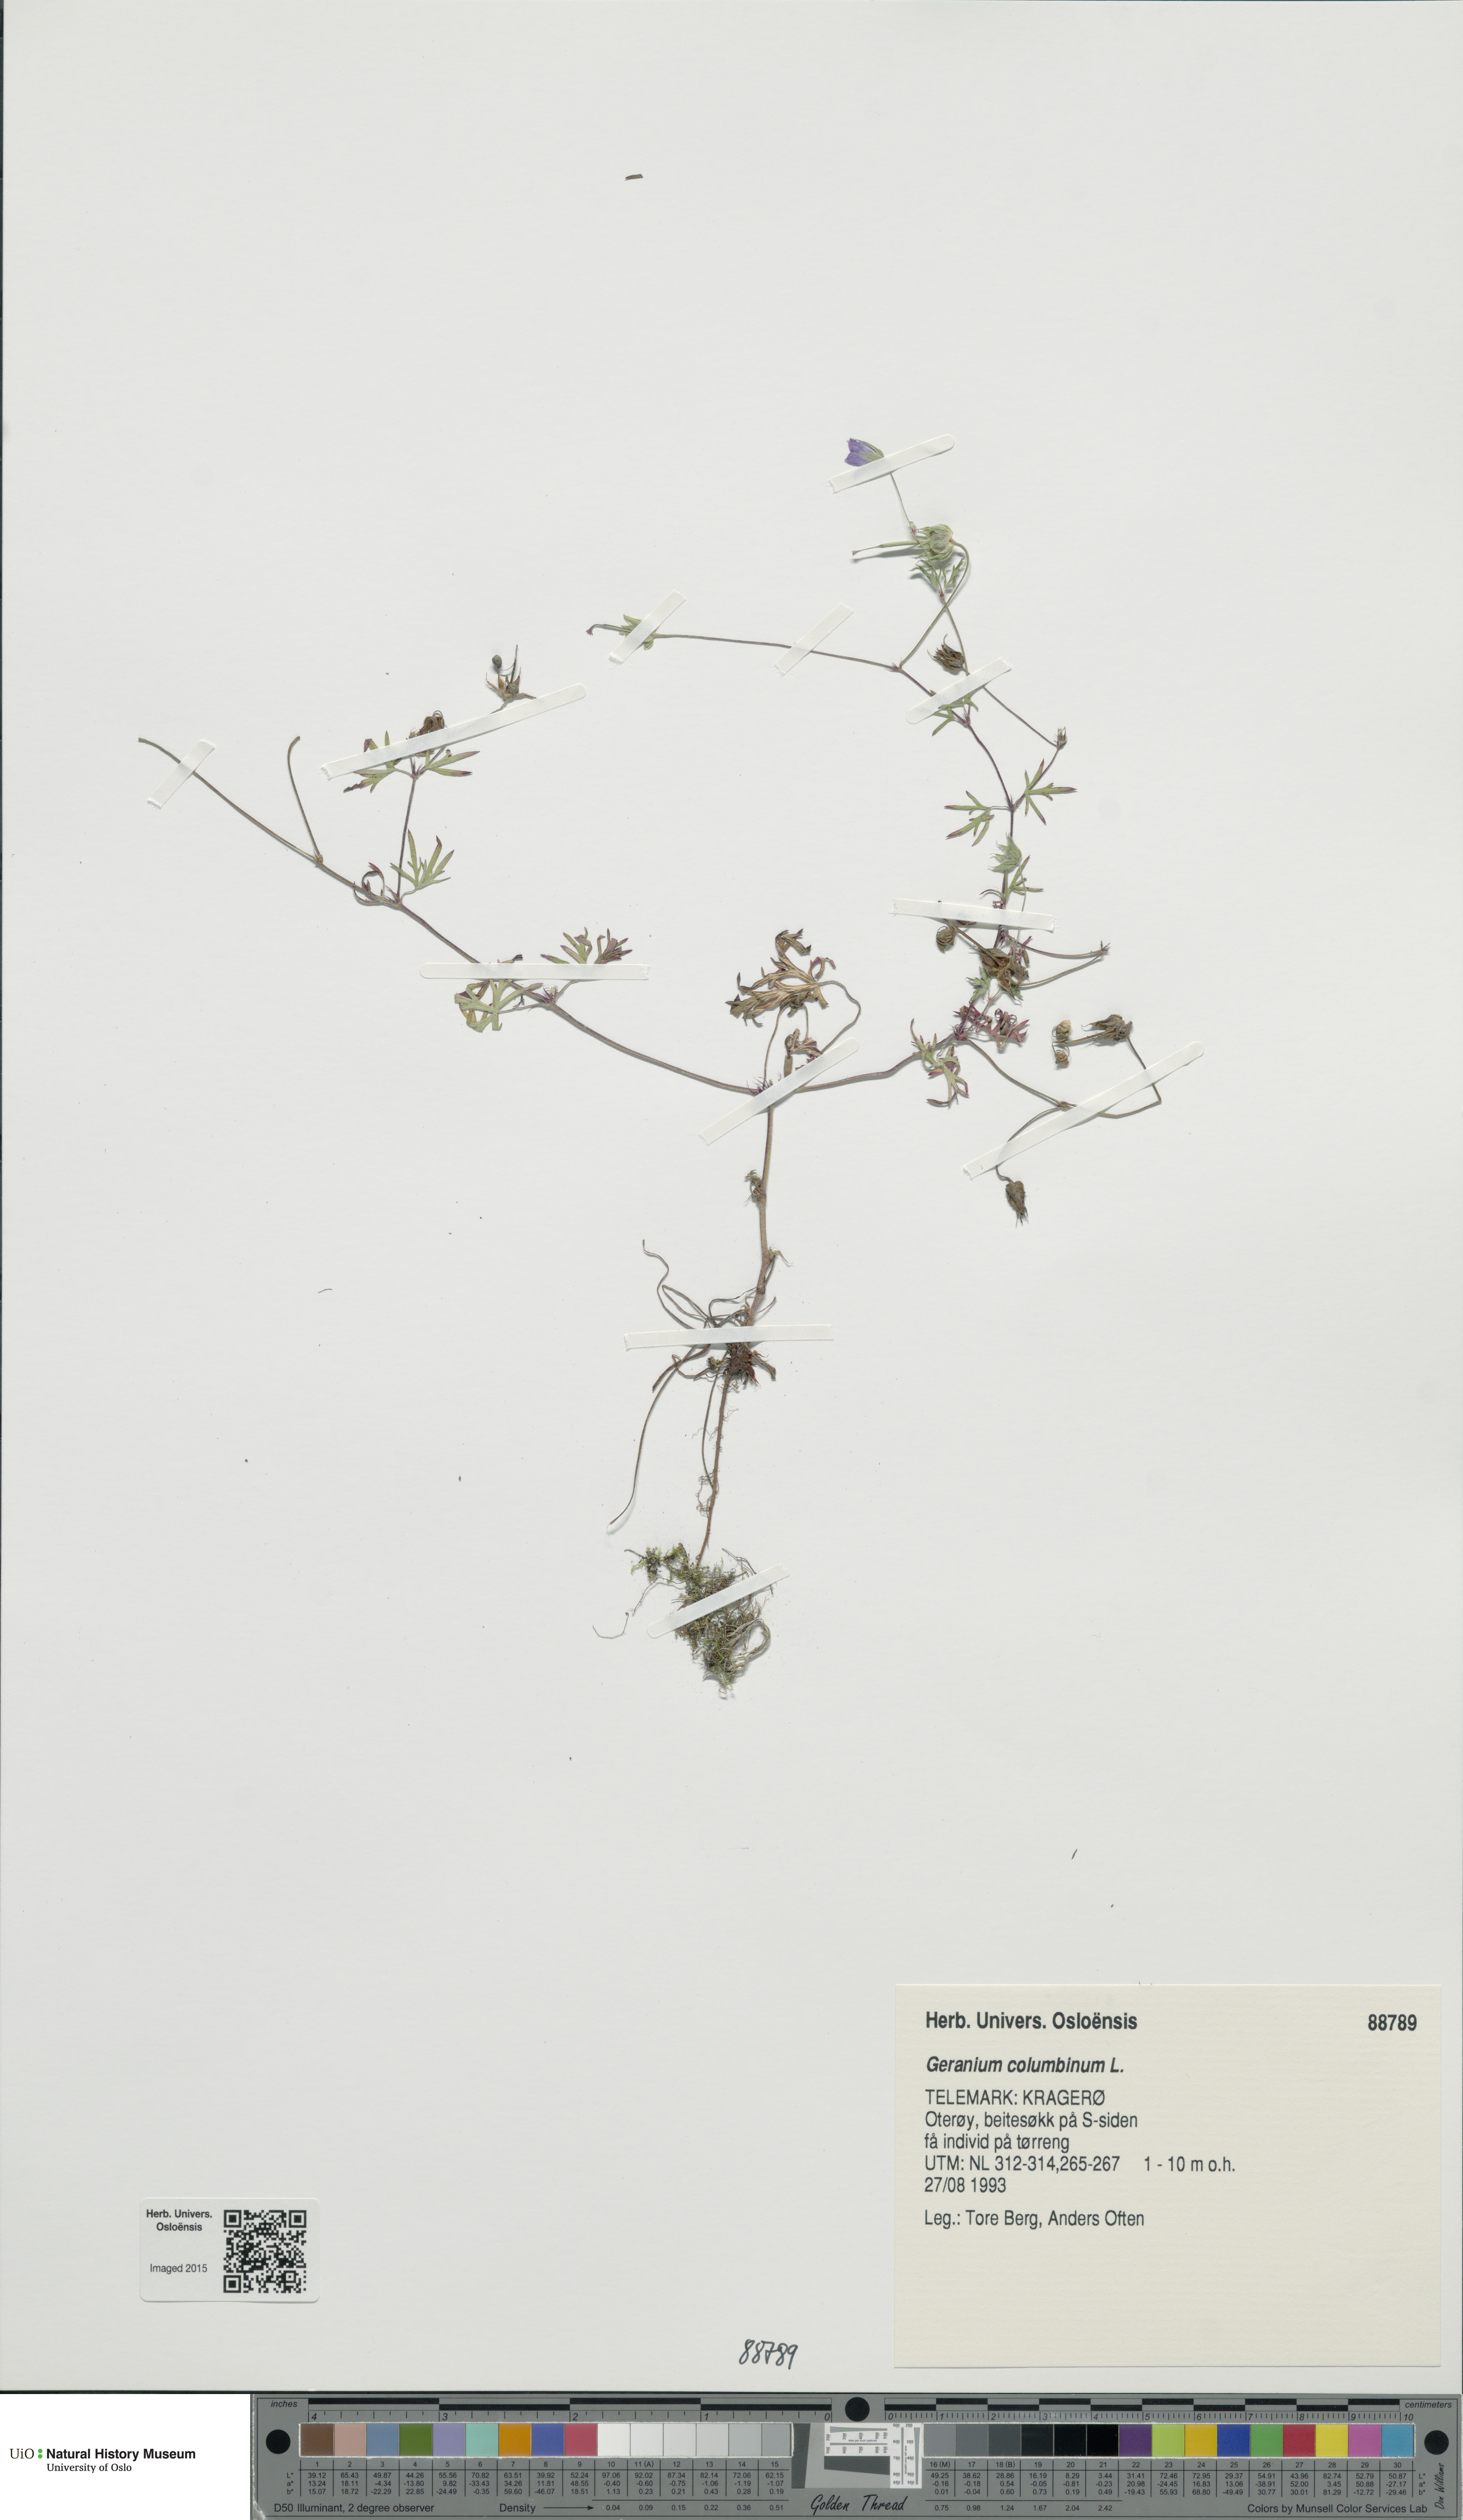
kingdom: Plantae
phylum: Tracheophyta
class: Magnoliopsida
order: Geraniales
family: Geraniaceae
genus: Geranium
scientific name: Geranium columbinum
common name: Long-stalked crane's-bill
